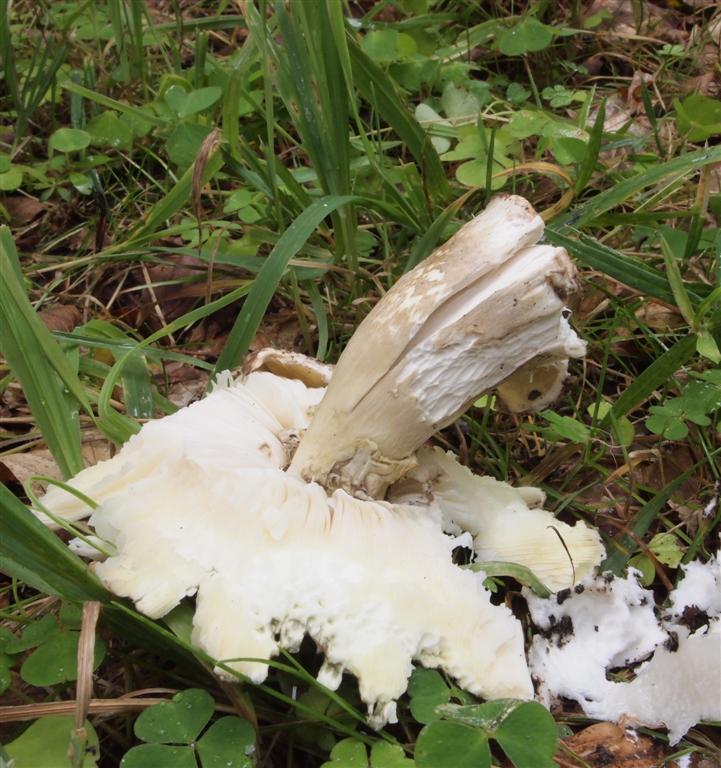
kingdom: Fungi
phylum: Basidiomycota
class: Agaricomycetes
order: Agaricales
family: Amanitaceae
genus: Amanita
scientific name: Amanita phalloides
